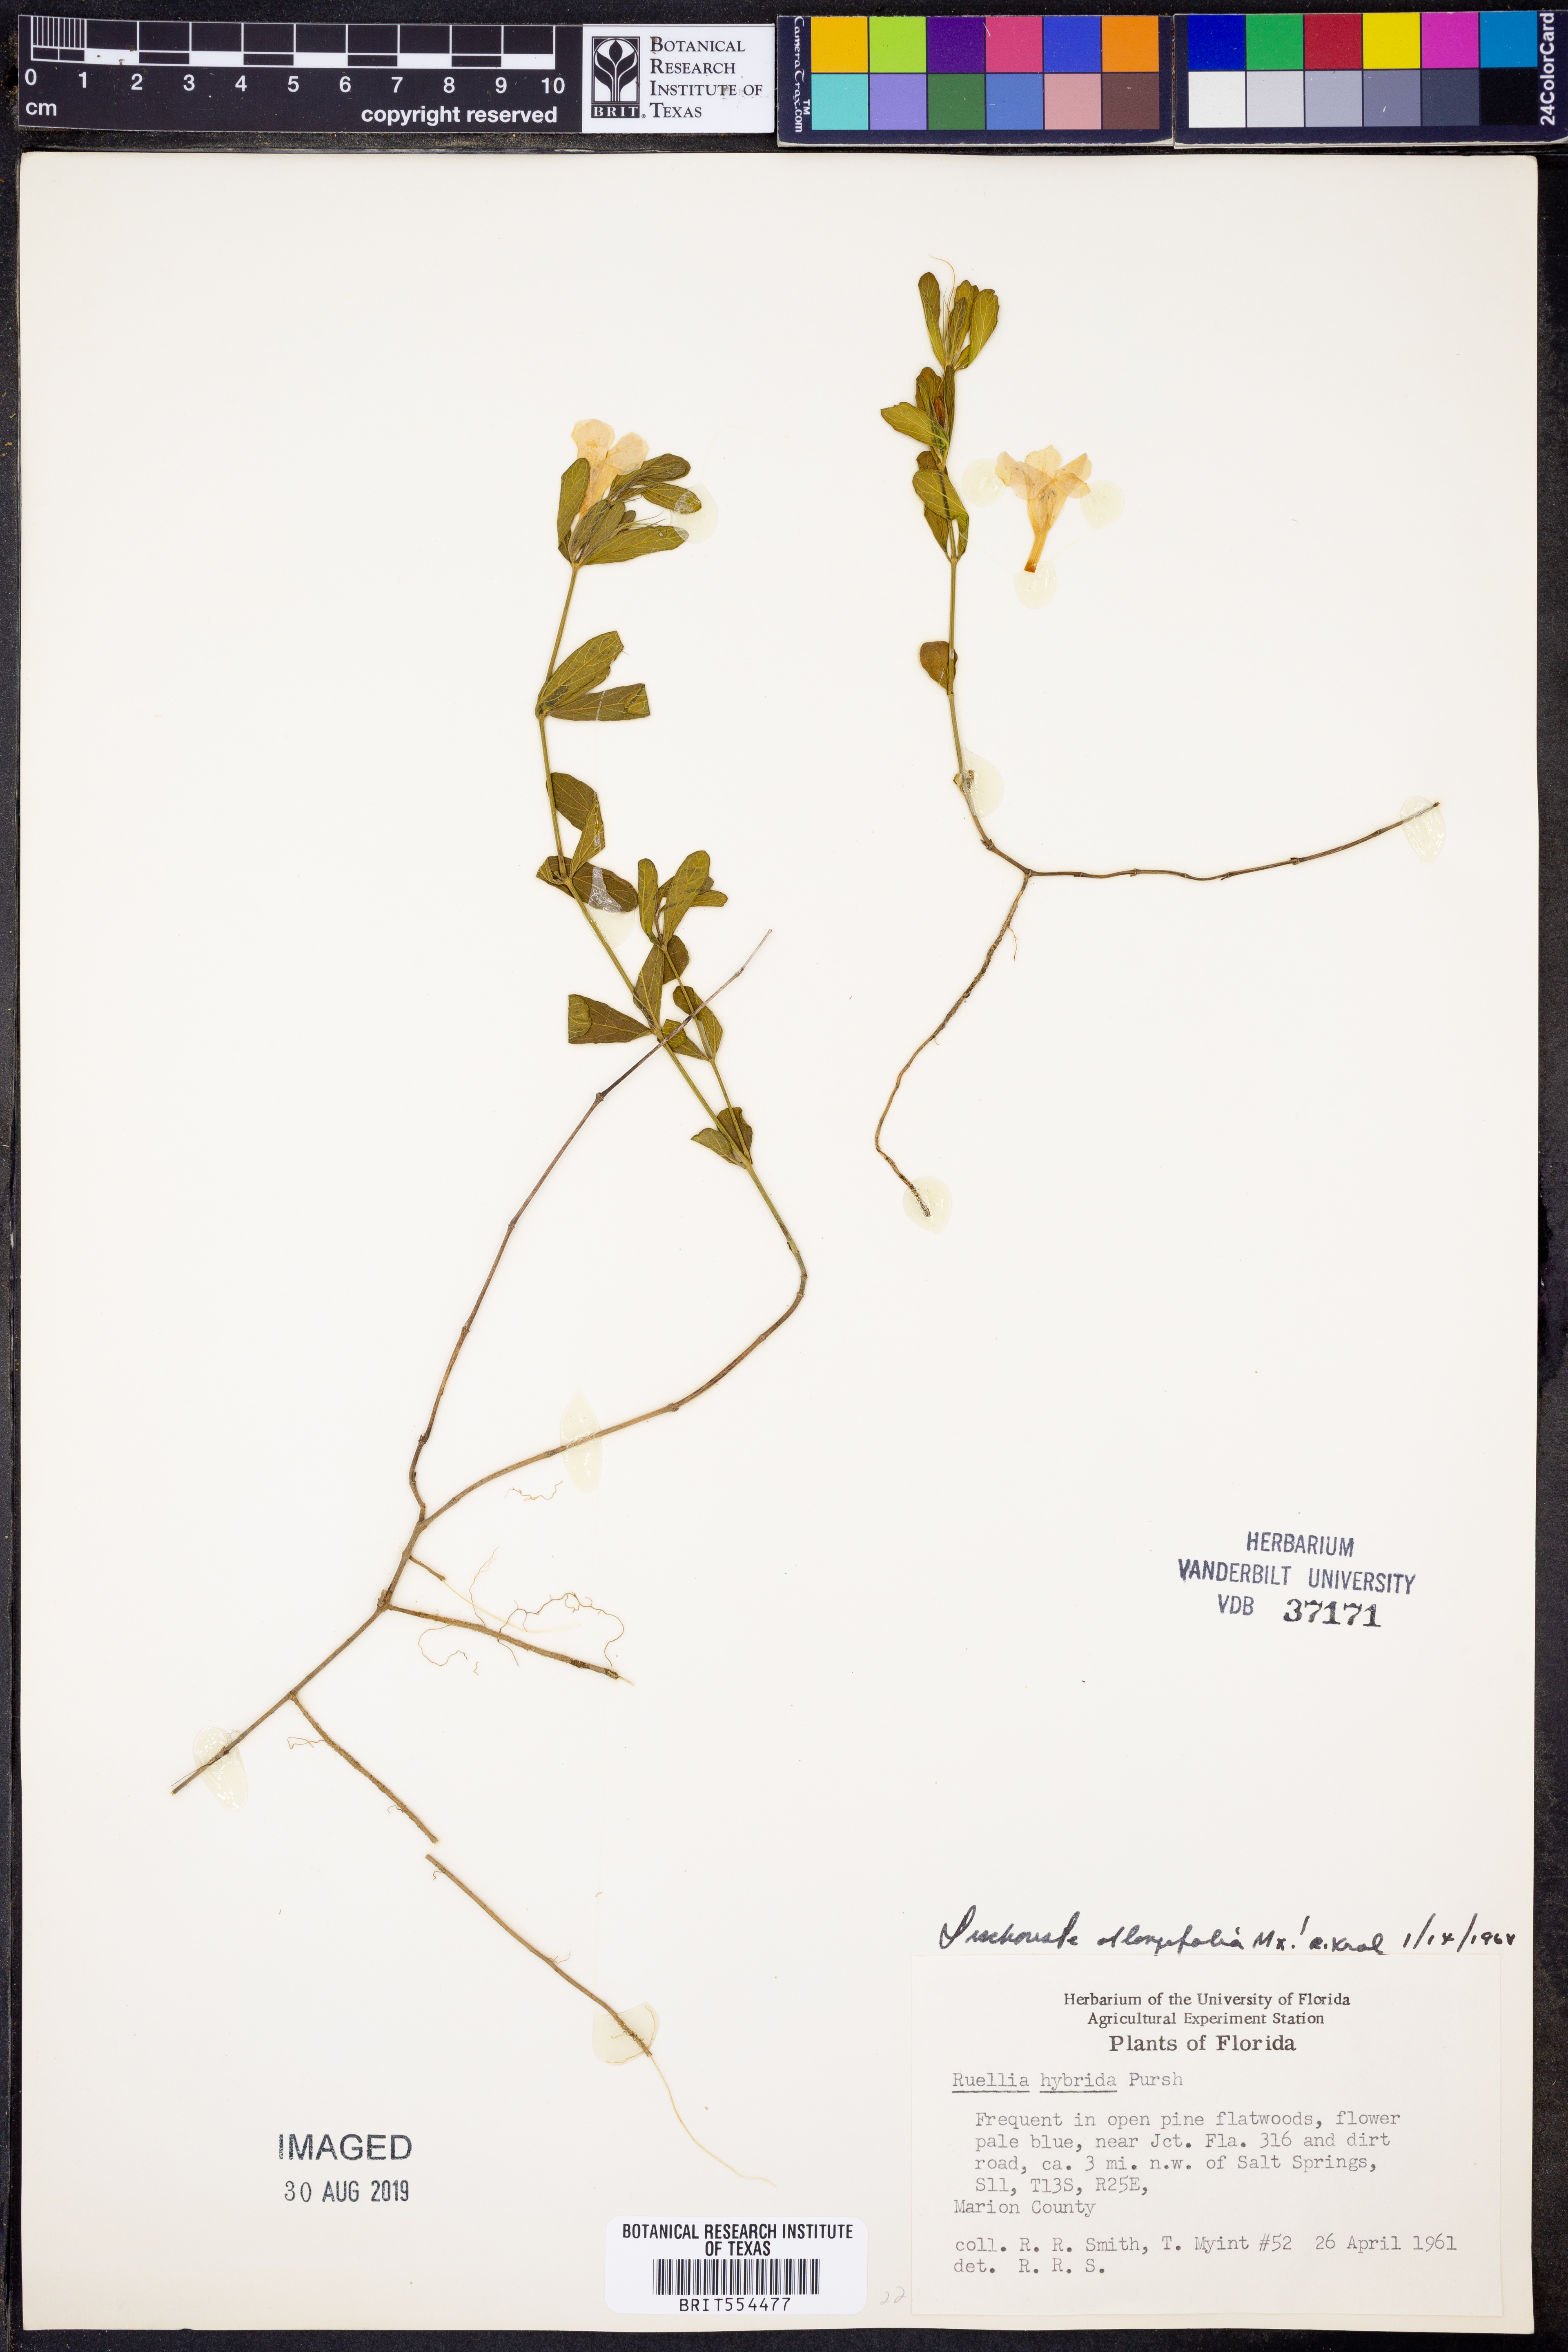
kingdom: Plantae
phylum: Tracheophyta
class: Magnoliopsida
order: Lamiales
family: Acanthaceae
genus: Dyschoriste
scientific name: Dyschoriste oblongifolia
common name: Blue twinflower
